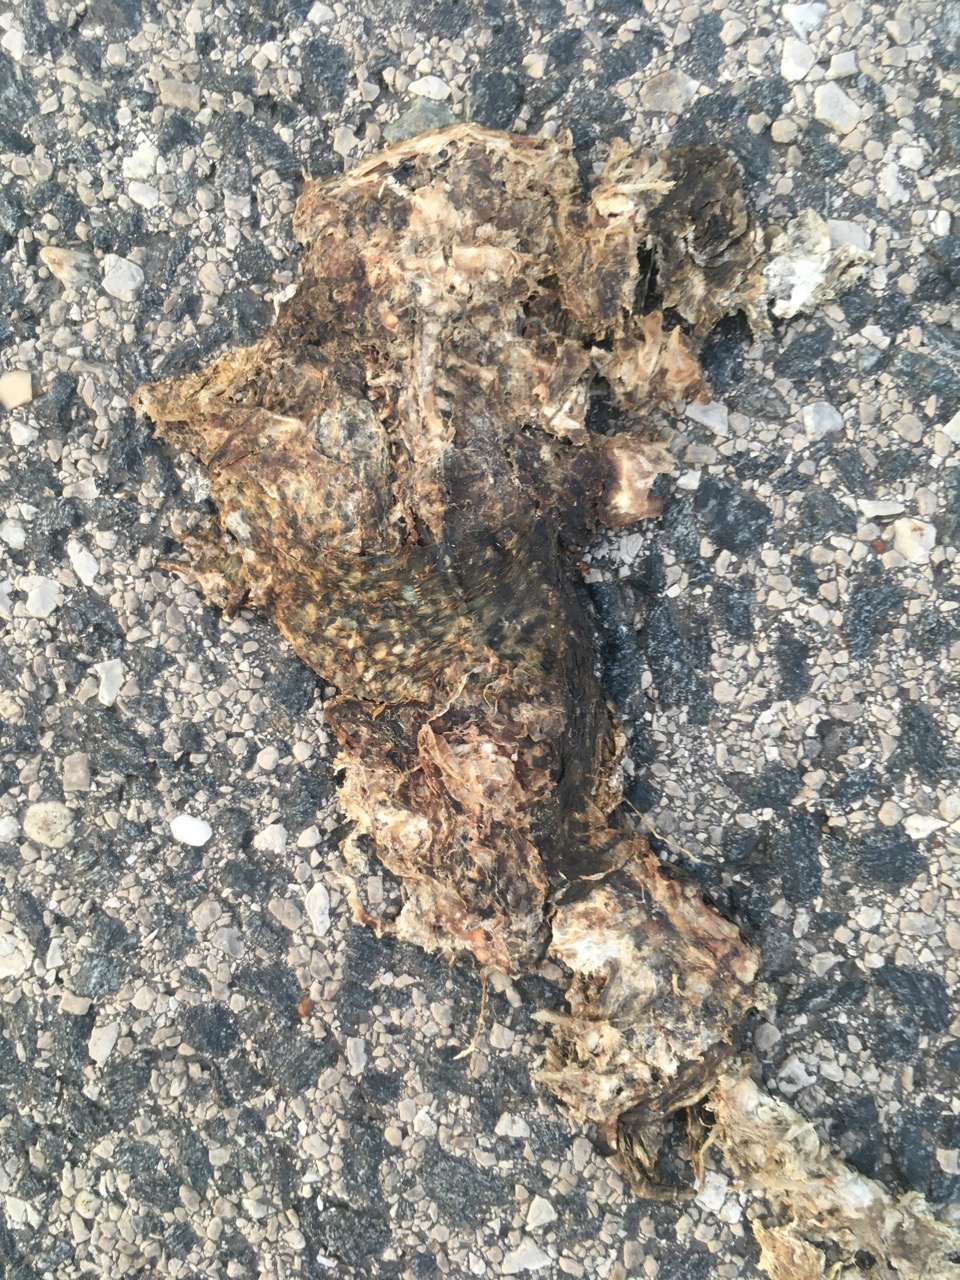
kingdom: Animalia
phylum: Chordata
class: Amphibia
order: Anura
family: Bufonidae
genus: Bufo
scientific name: Bufo bufo
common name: Common toad
